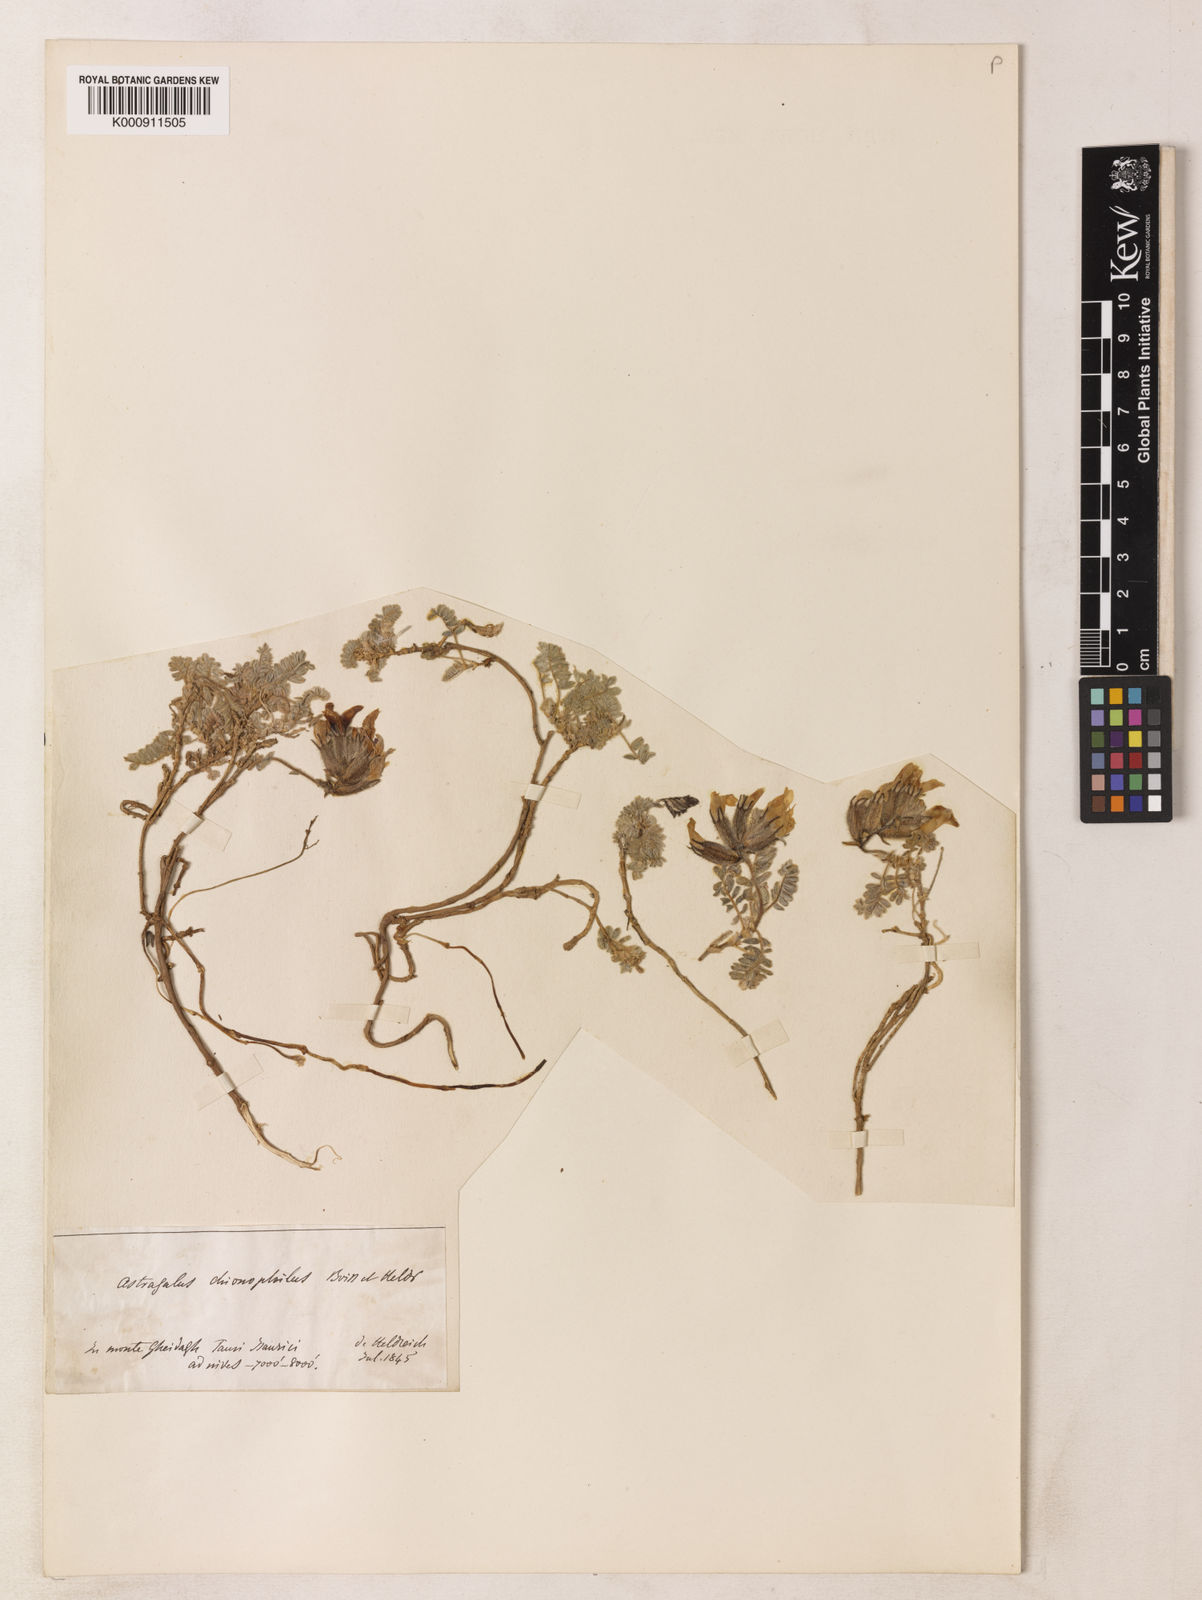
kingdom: Plantae
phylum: Tracheophyta
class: Magnoliopsida
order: Fabales
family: Fabaceae
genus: Astragalus
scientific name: Astragalus lineatus
